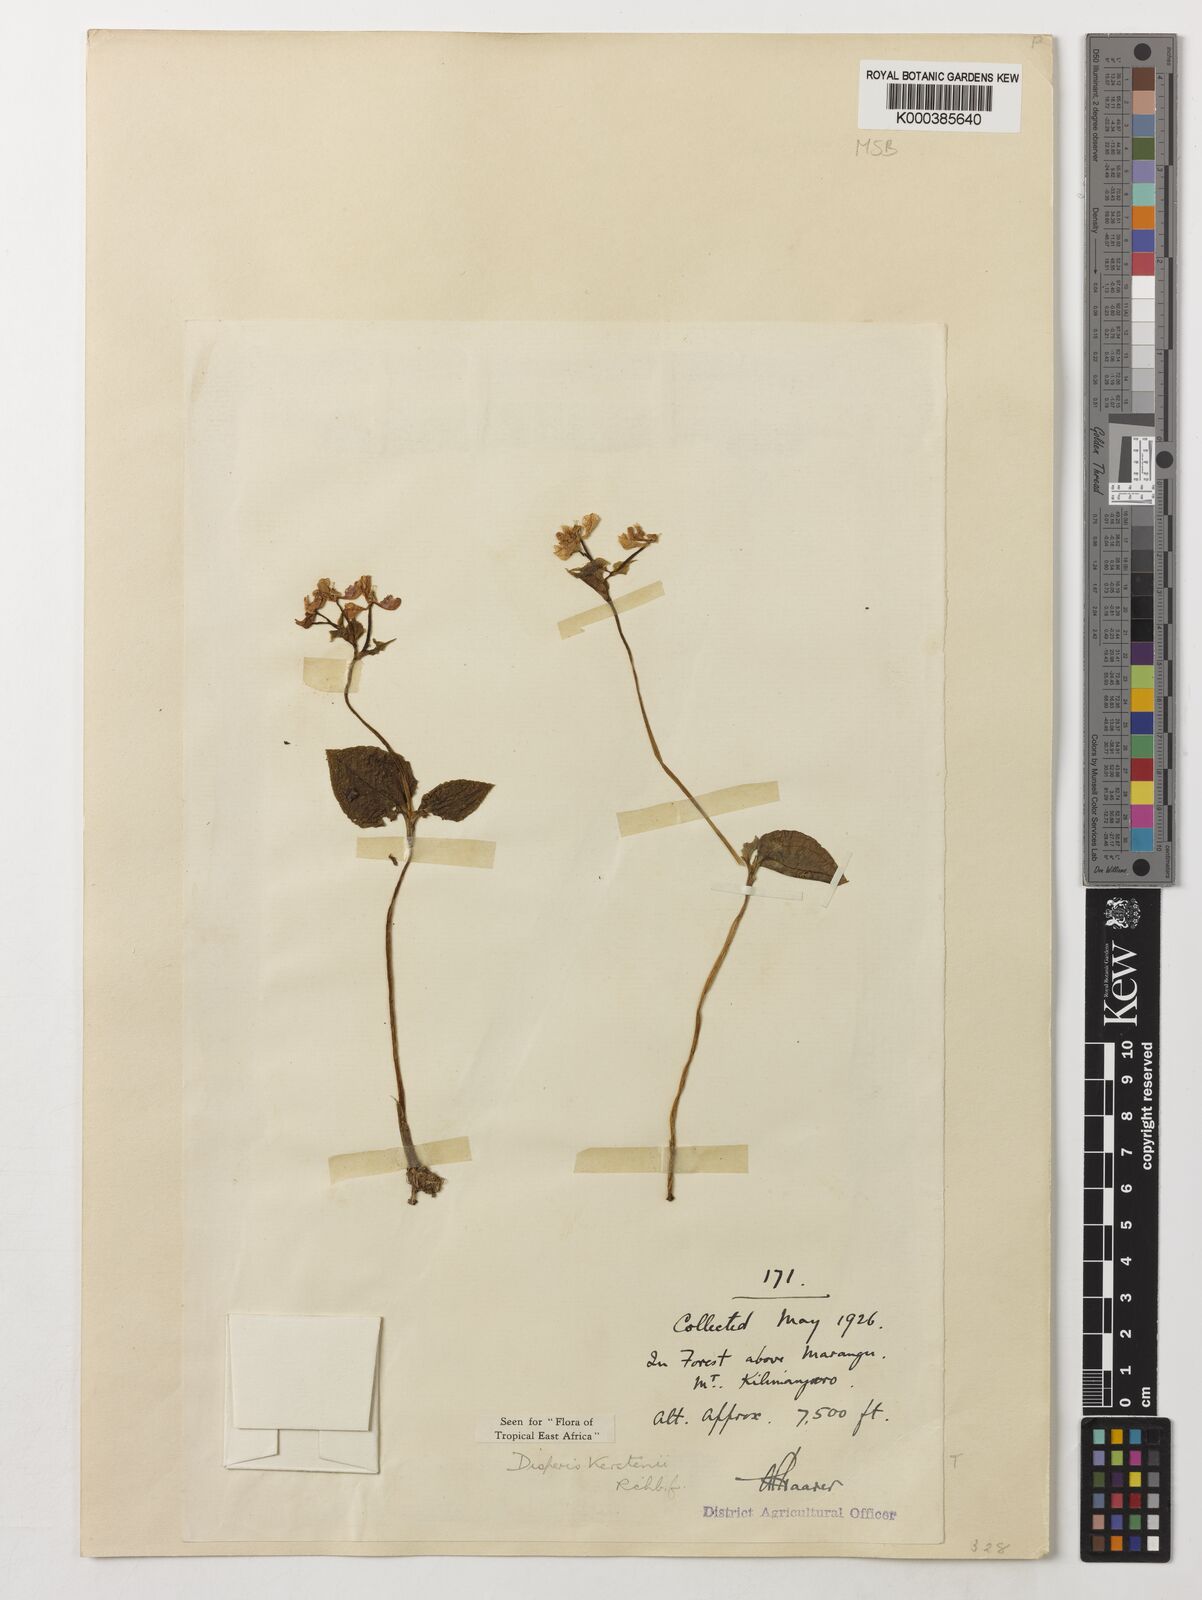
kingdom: Plantae
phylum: Tracheophyta
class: Liliopsida
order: Asparagales
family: Orchidaceae
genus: Disperis
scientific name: Disperis kerstenii
